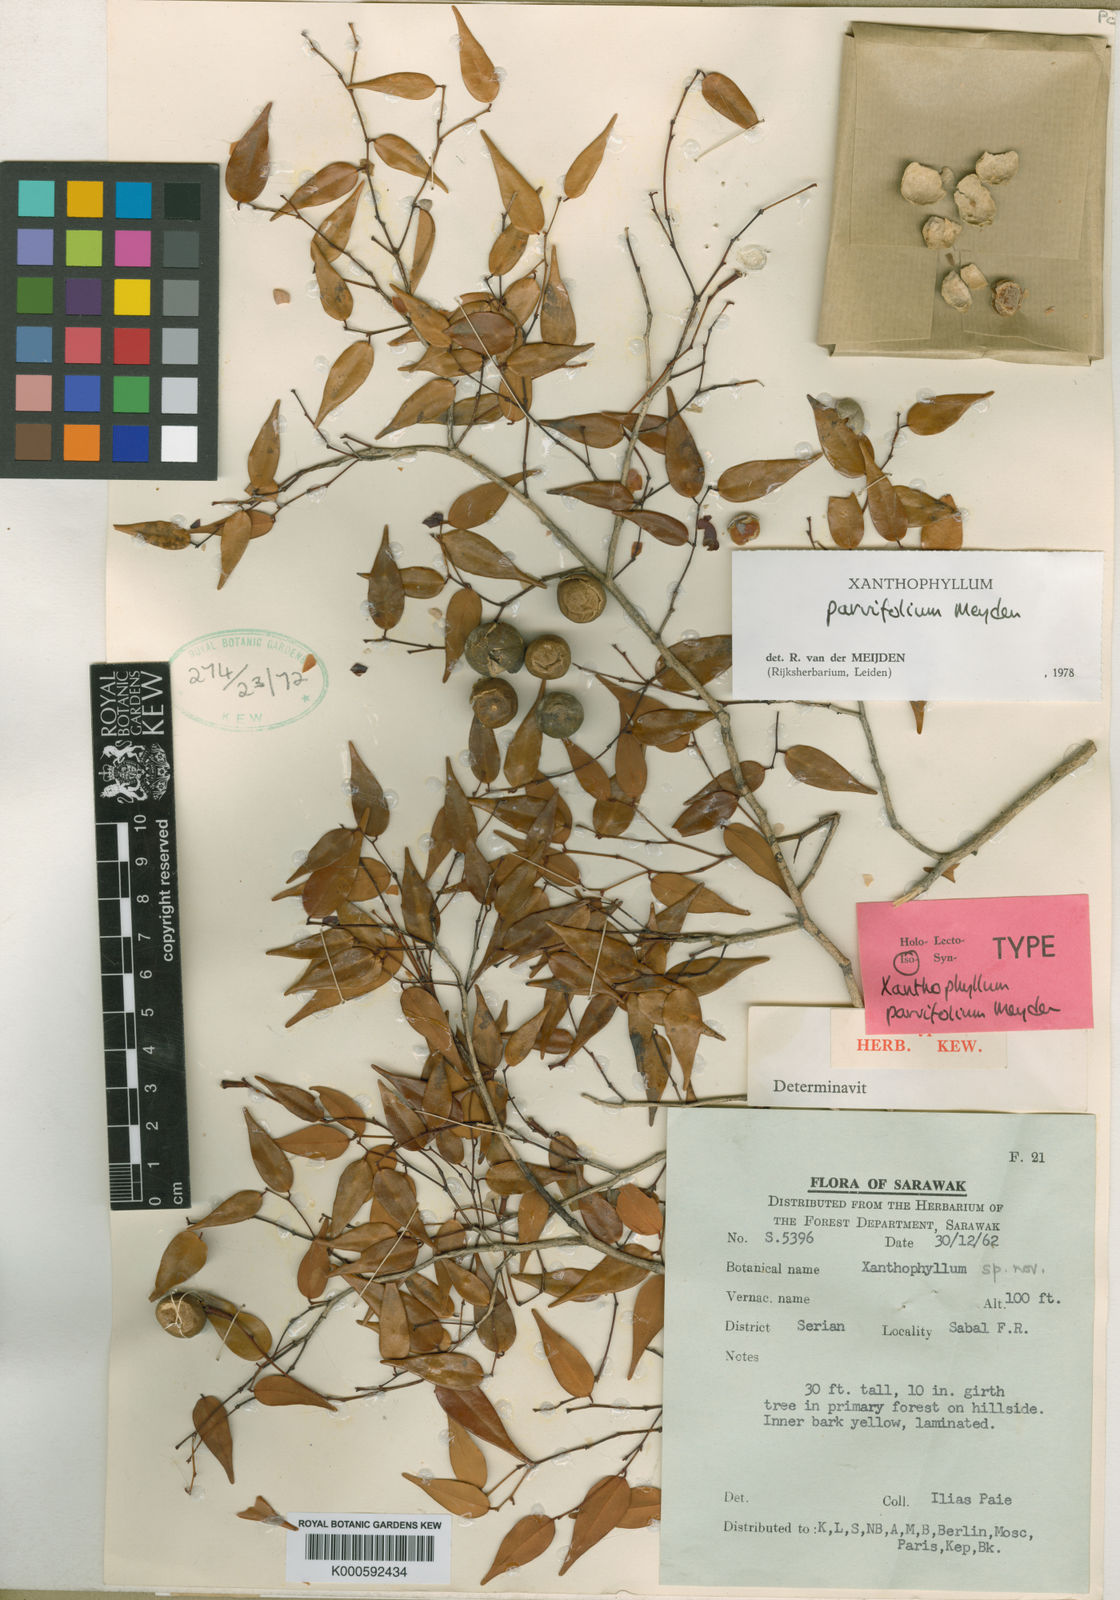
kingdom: Plantae
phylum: Tracheophyta
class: Magnoliopsida
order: Fabales
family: Polygalaceae
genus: Xanthophyllum
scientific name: Xanthophyllum griffithii
